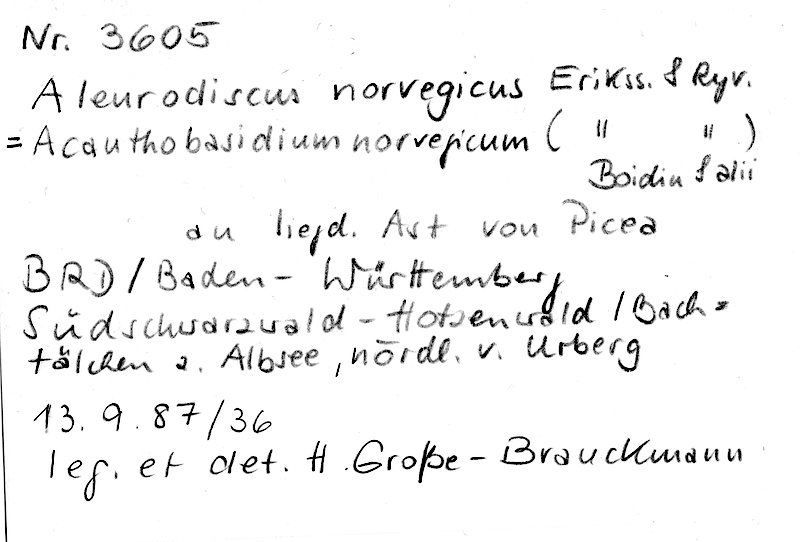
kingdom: Fungi
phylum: Basidiomycota
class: Agaricomycetes
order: Russulales
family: Stereaceae
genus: Acanthobasidium
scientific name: Acanthobasidium norvegicum
